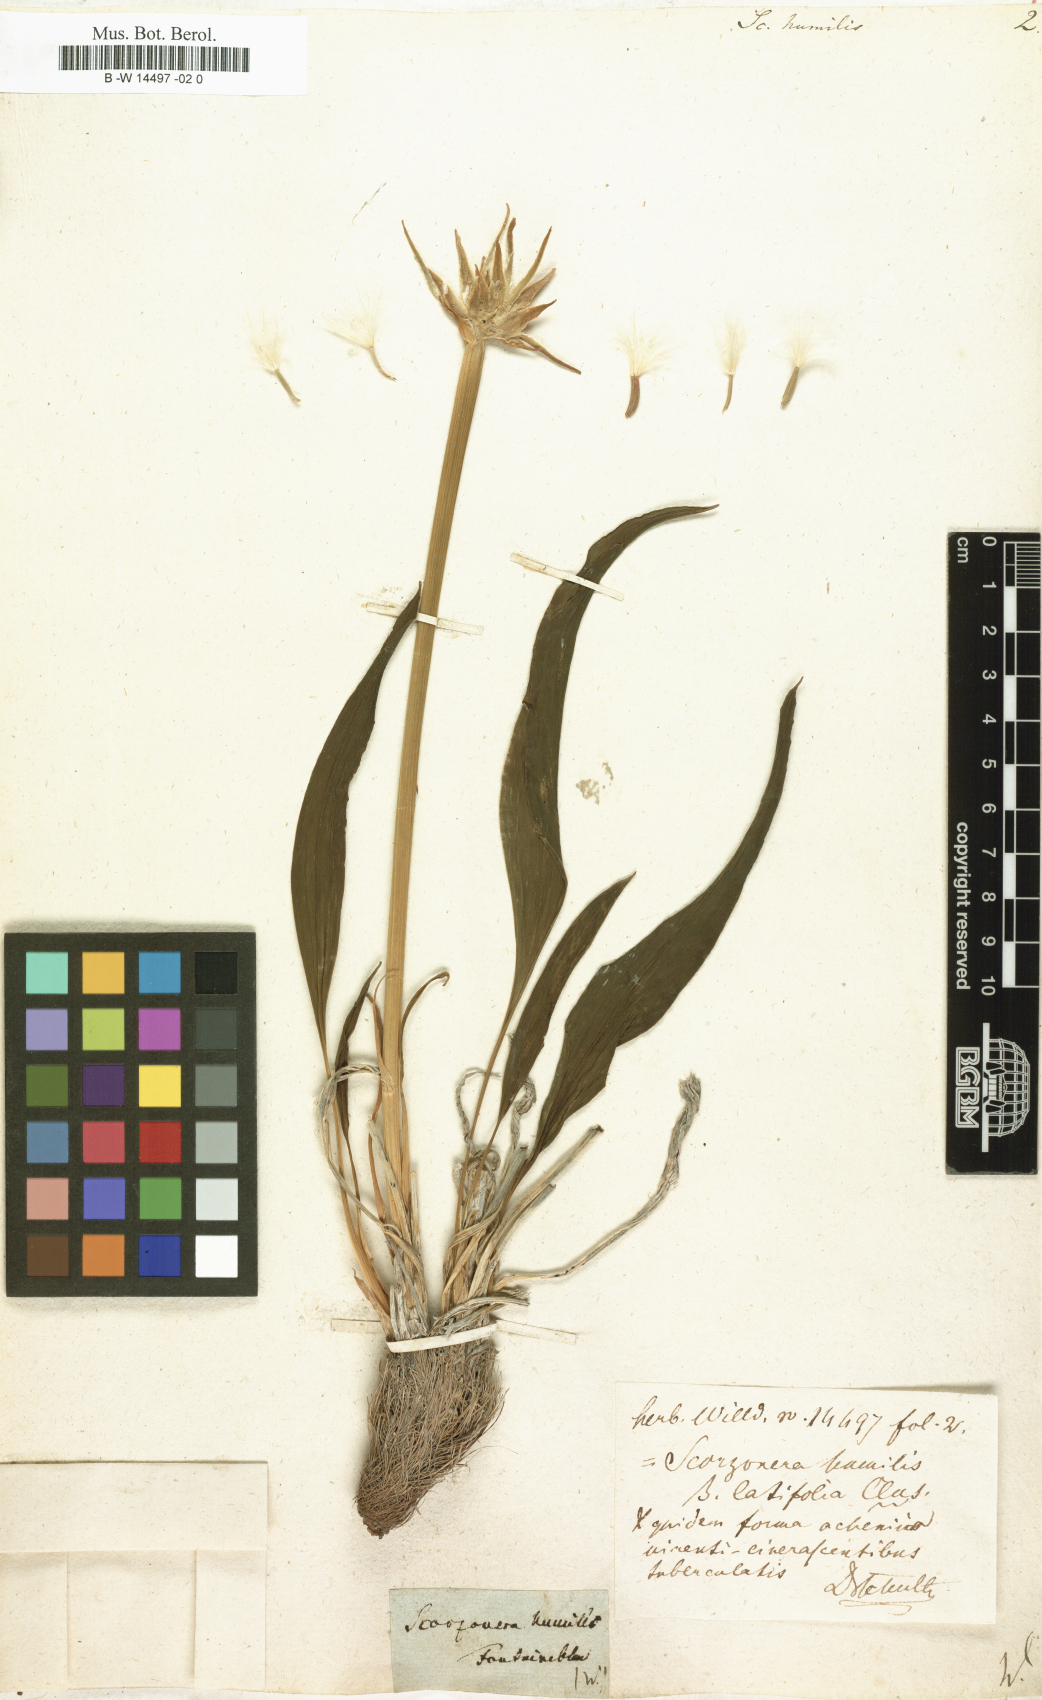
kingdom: Plantae
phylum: Tracheophyta
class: Magnoliopsida
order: Asterales
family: Asteraceae
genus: Scorzonera
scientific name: Scorzonera humilis
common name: Viper's-grass
